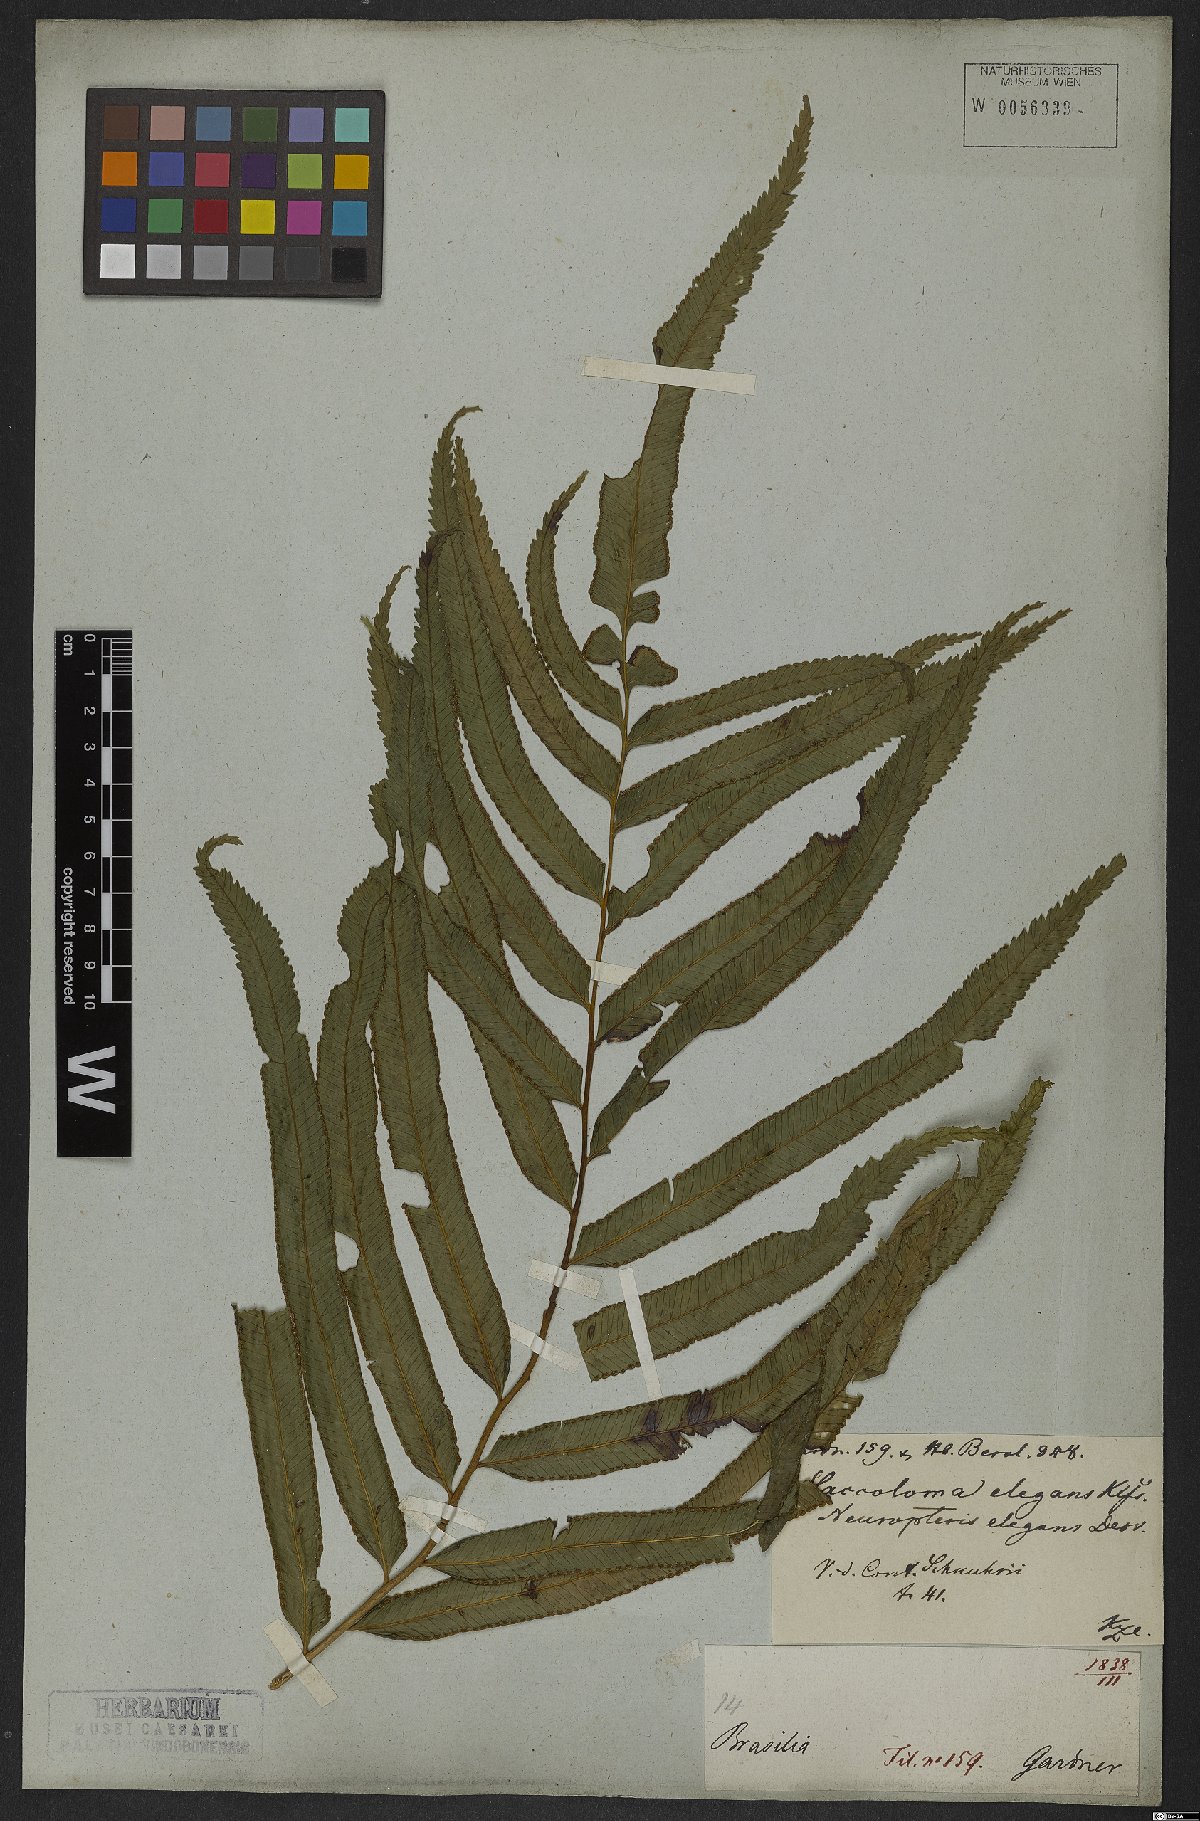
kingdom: Plantae
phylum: Tracheophyta
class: Polypodiopsida
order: Polypodiales
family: Saccolomataceae
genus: Saccoloma
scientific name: Saccoloma elegans
